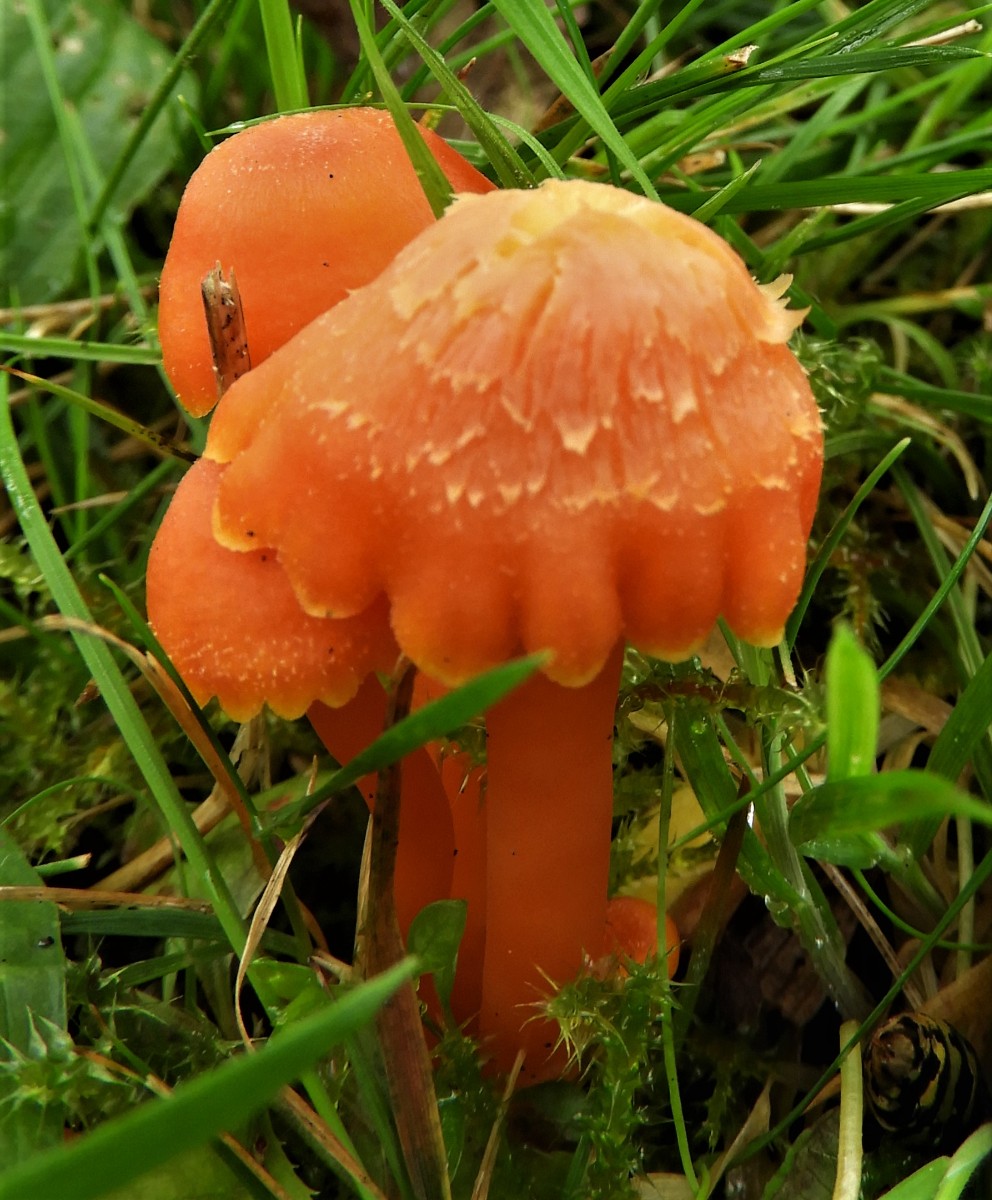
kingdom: Fungi
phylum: Basidiomycota
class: Agaricomycetes
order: Agaricales
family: Hygrophoraceae
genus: Hygrocybe
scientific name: Hygrocybe
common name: vokshat
